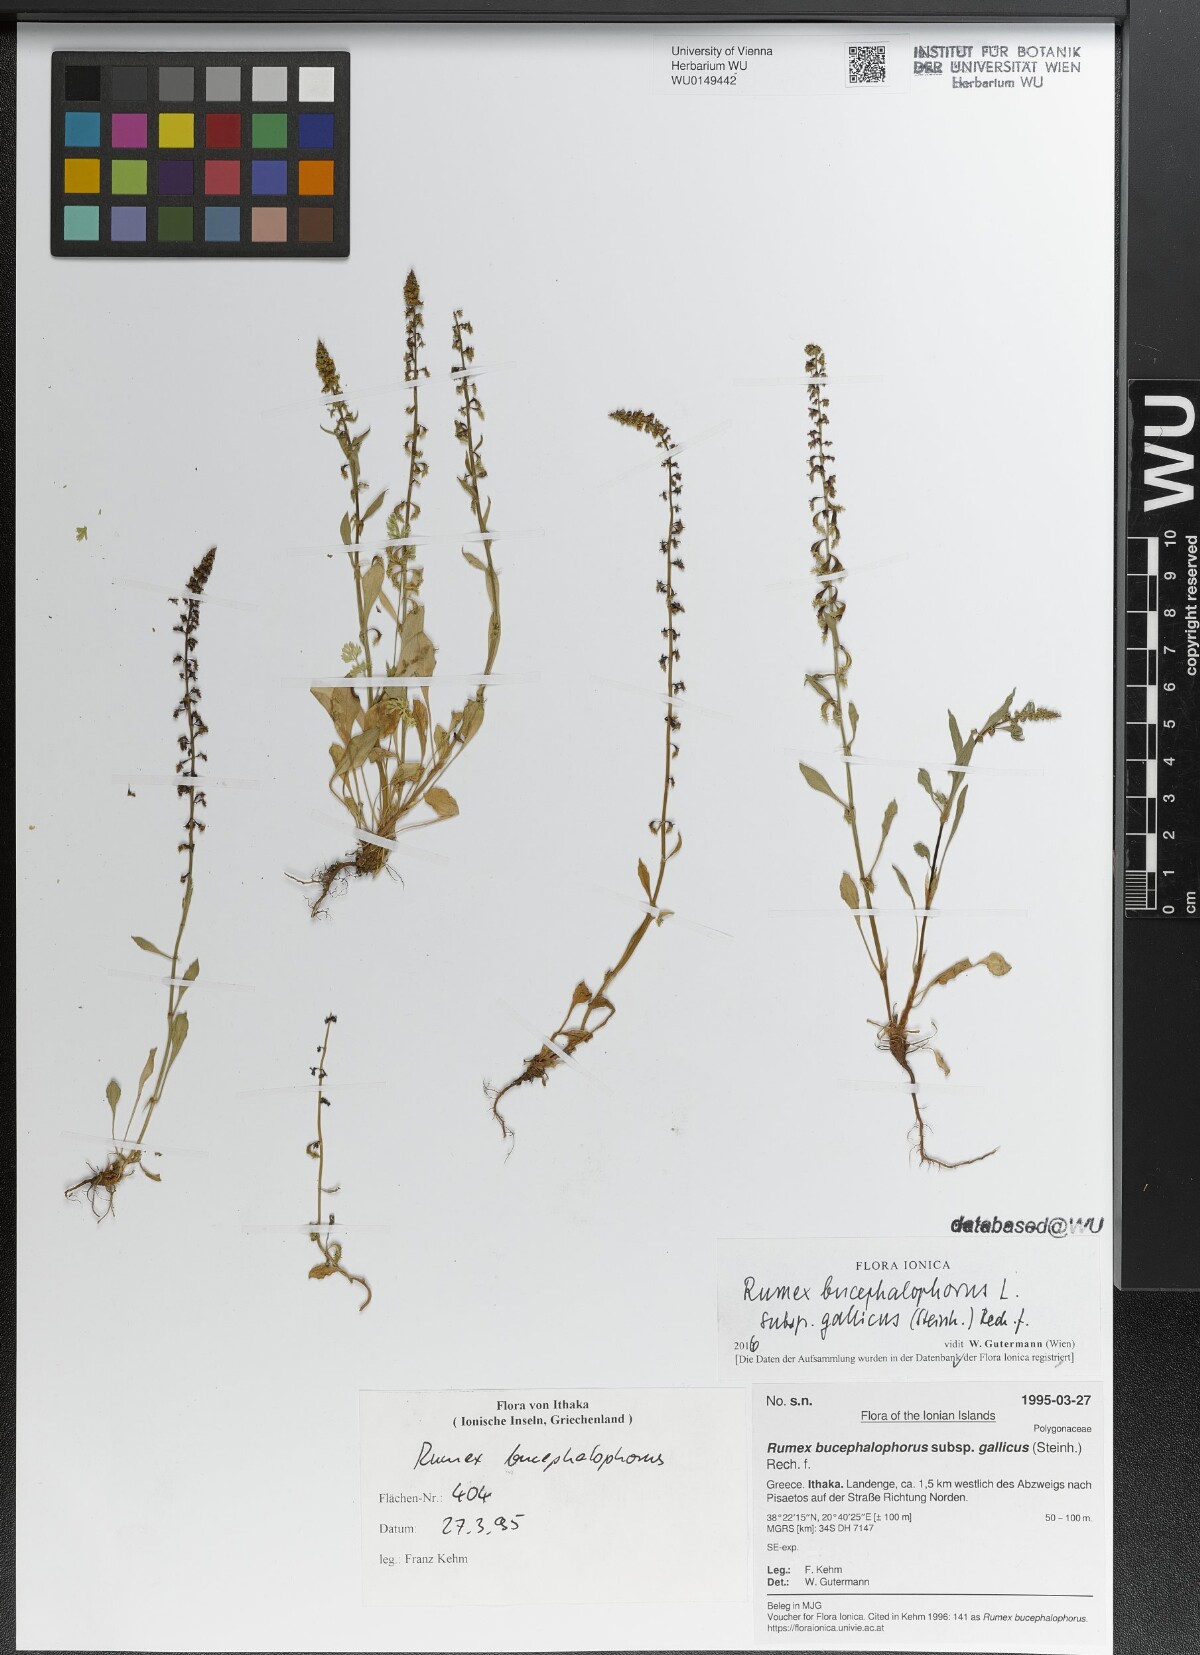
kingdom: Plantae
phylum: Tracheophyta
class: Magnoliopsida
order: Caryophyllales
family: Polygonaceae
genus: Rumex
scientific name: Rumex bucephalophorus
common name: Red dock
